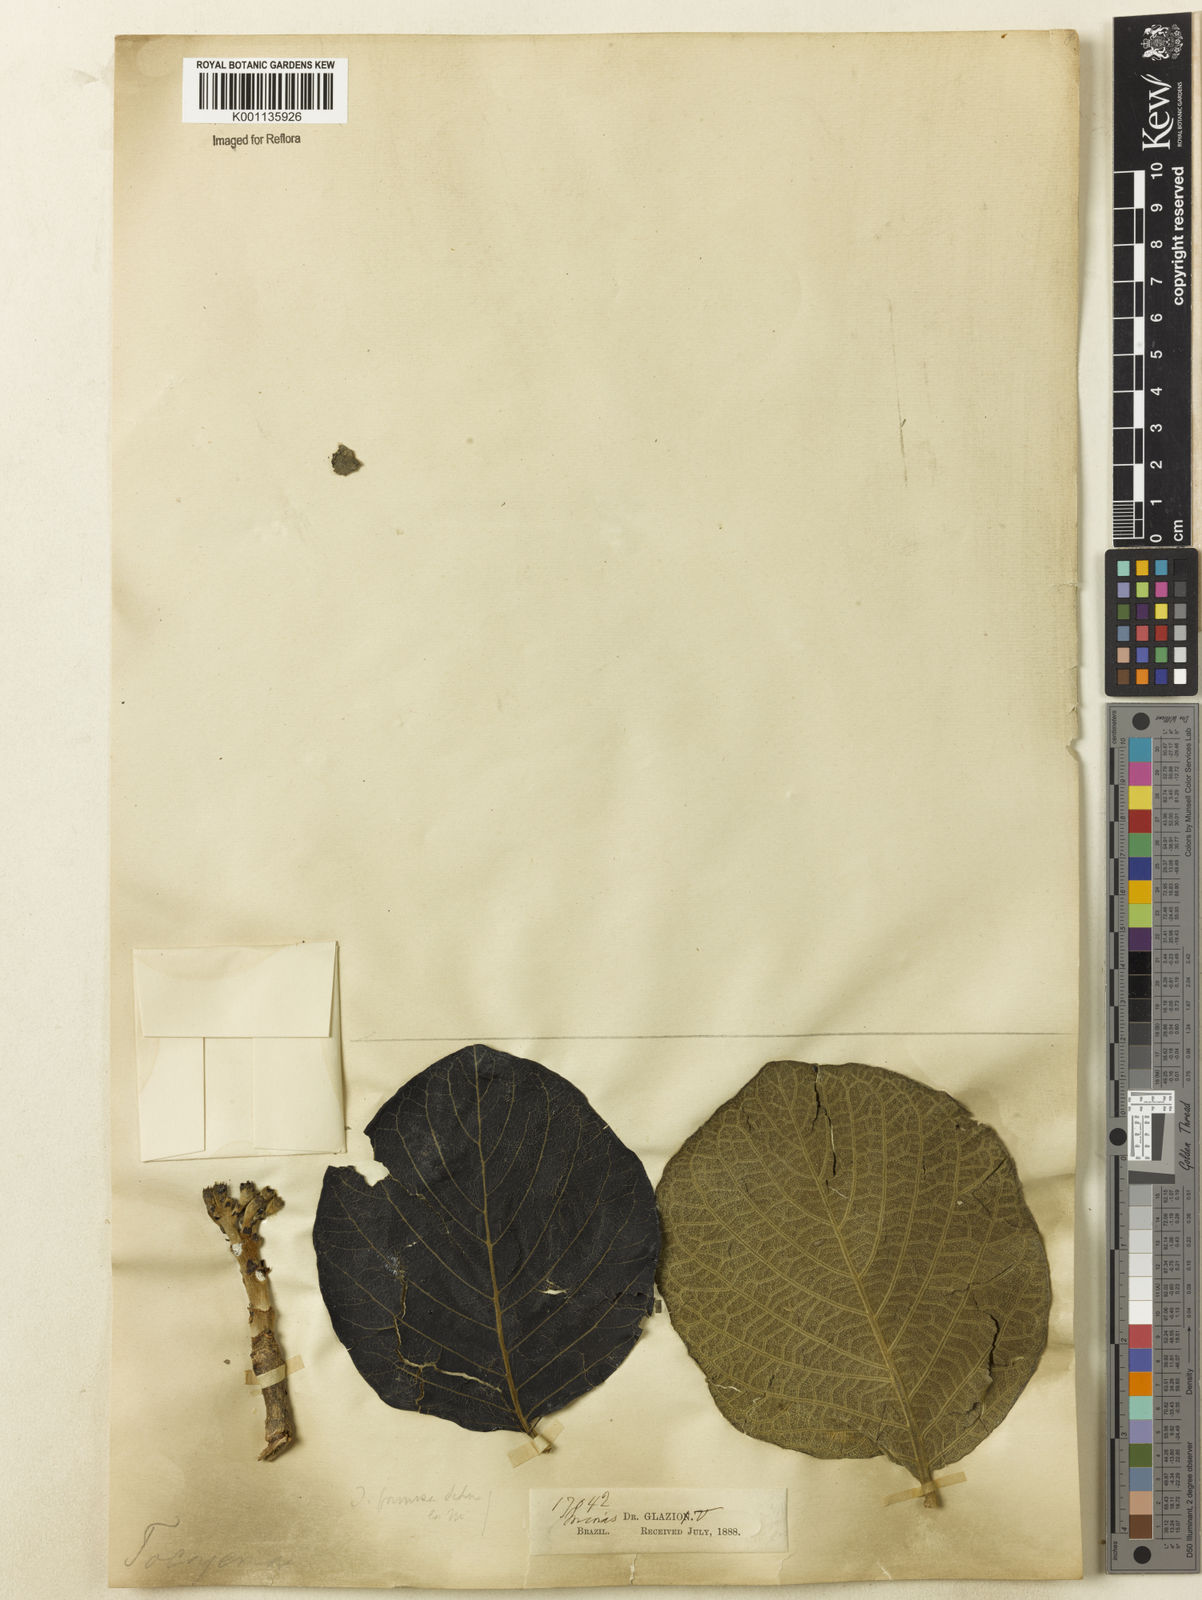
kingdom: Plantae
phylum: Tracheophyta
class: Magnoliopsida
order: Gentianales
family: Rubiaceae
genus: Tocoyena
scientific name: Tocoyena formosa
